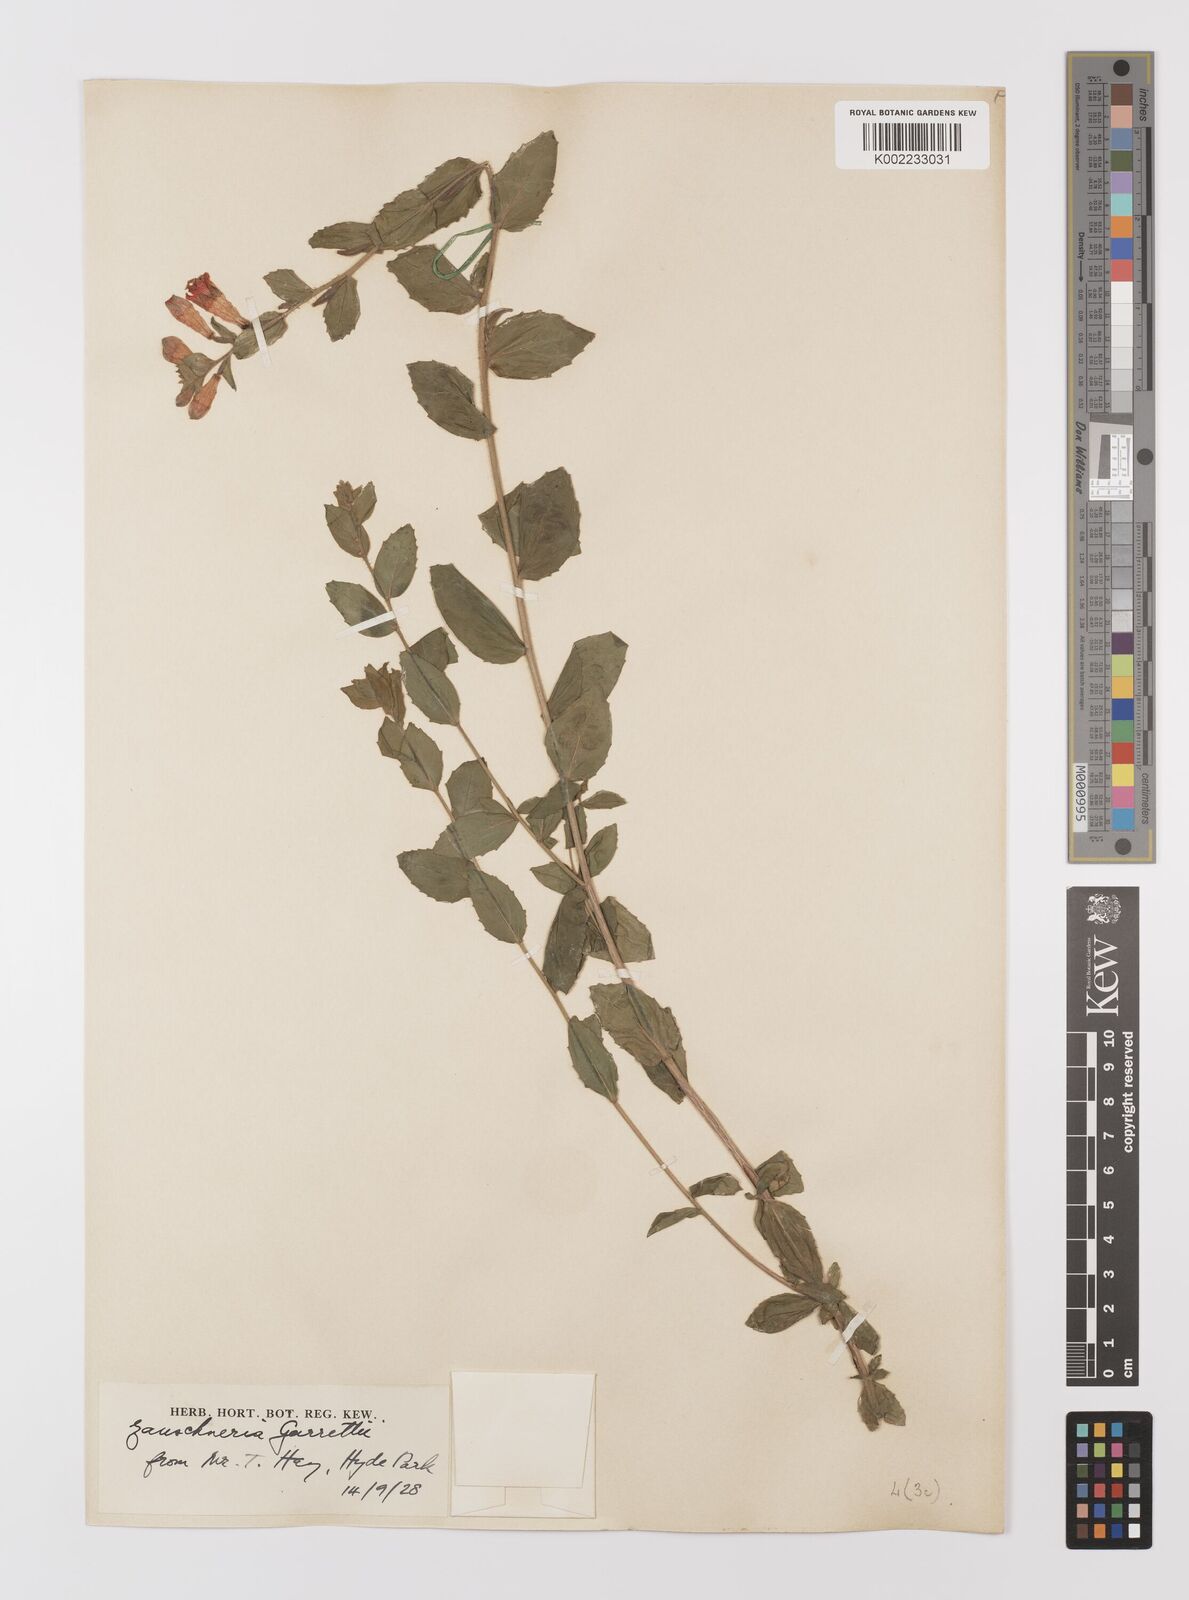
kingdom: Plantae
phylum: Tracheophyta
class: Magnoliopsida
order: Myrtales
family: Onagraceae
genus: Epilobium
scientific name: Epilobium
